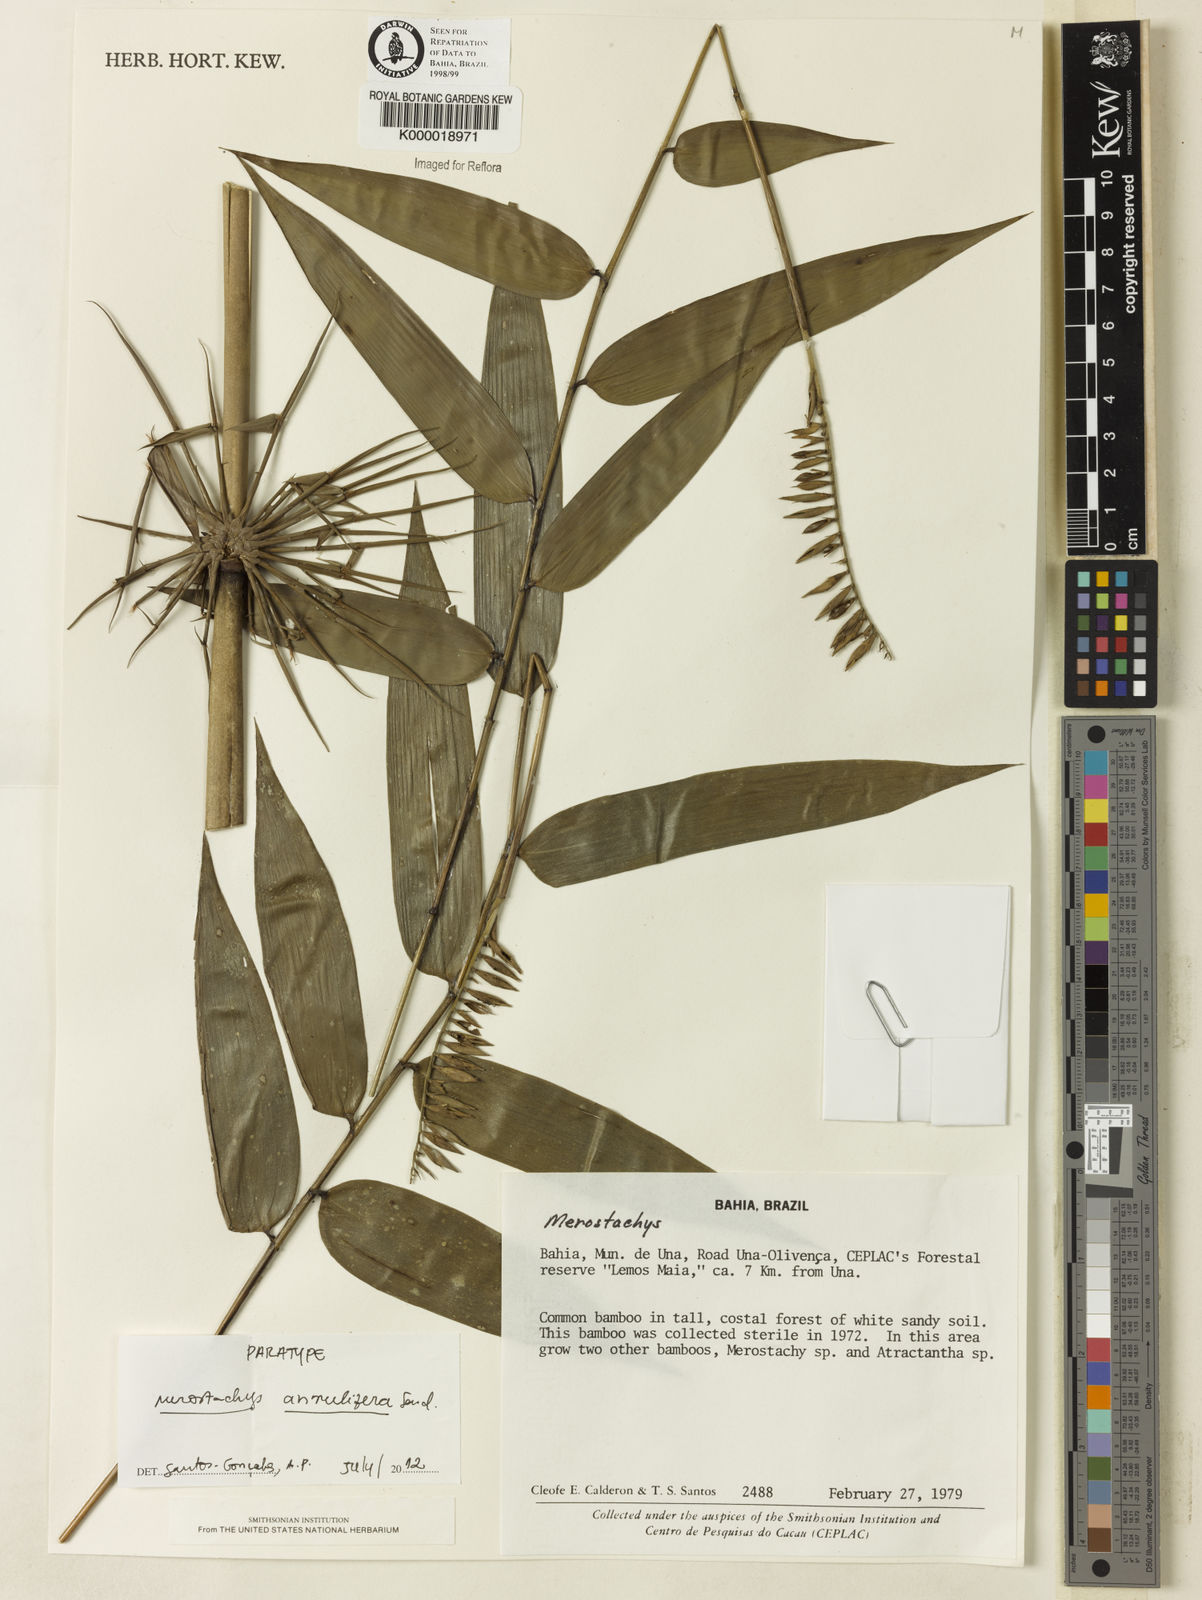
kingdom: Plantae
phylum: Tracheophyta
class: Liliopsida
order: Poales
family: Poaceae
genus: Merostachys
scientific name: Merostachys annulifera
